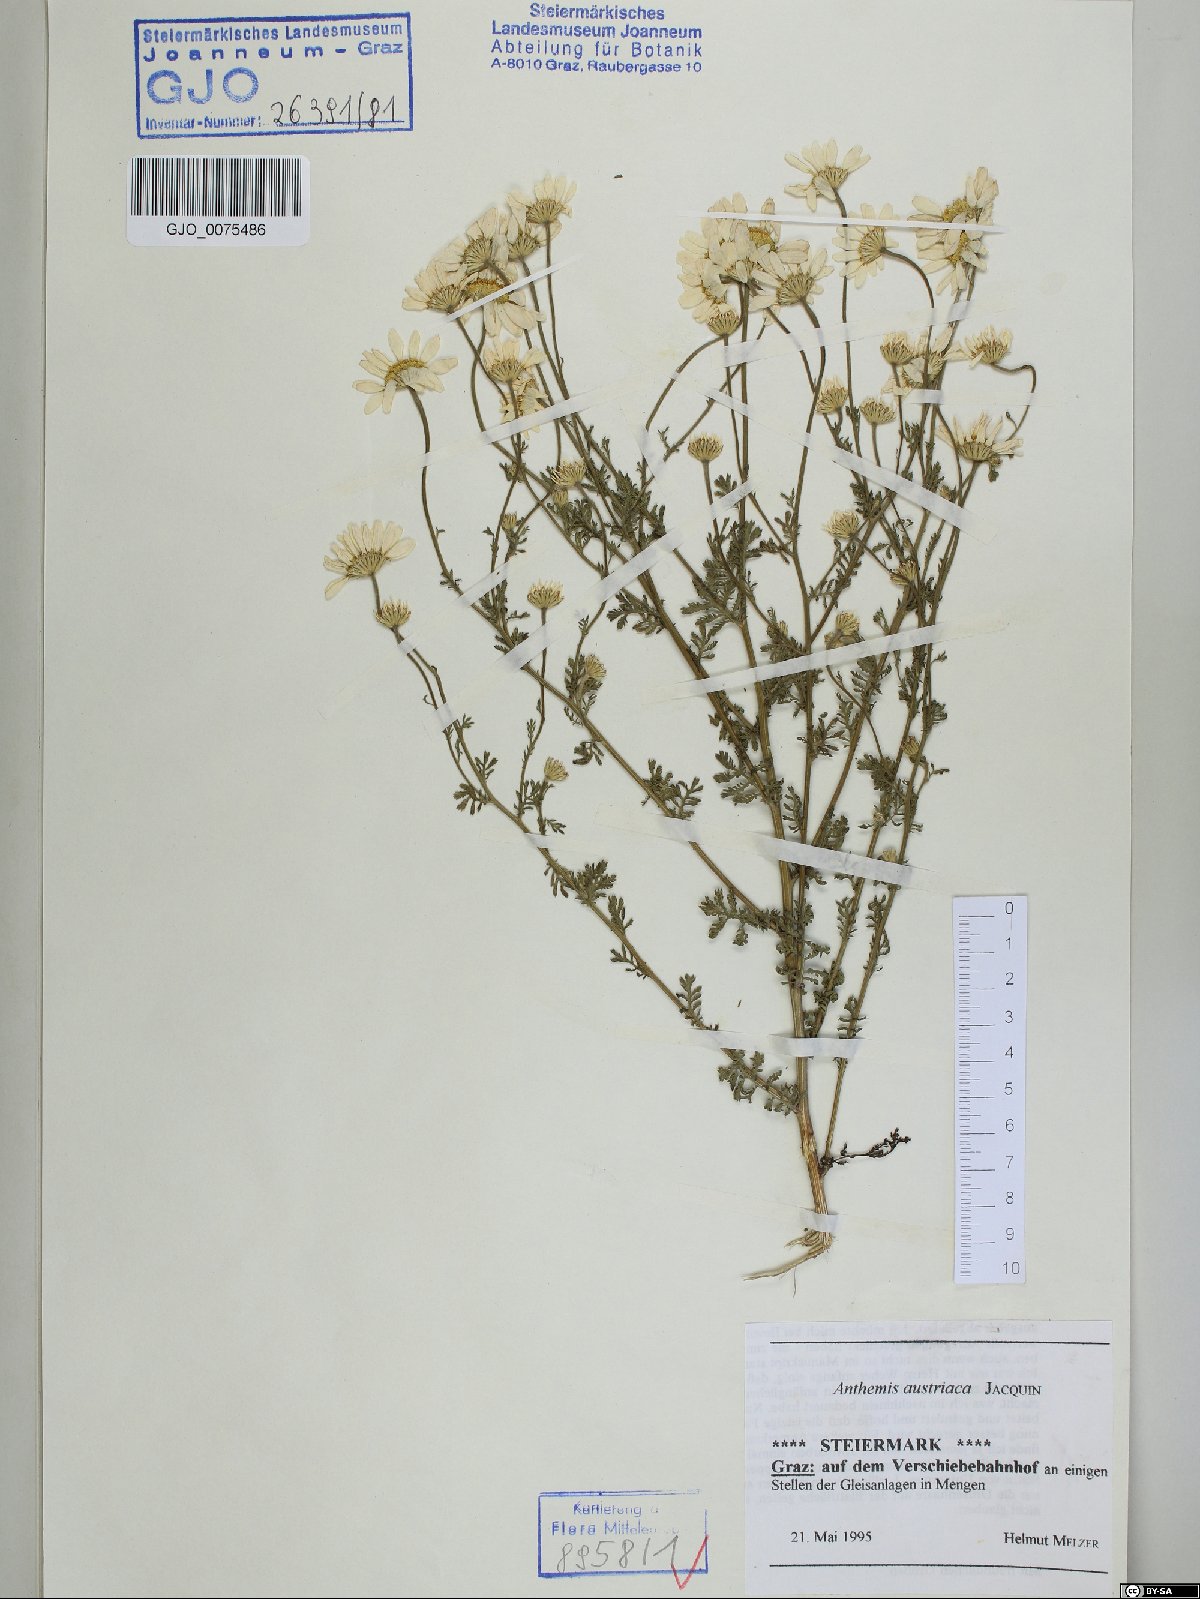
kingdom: Plantae
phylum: Tracheophyta
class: Magnoliopsida
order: Asterales
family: Asteraceae
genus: Cota
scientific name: Cota austriaca
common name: Austrian chamomile
